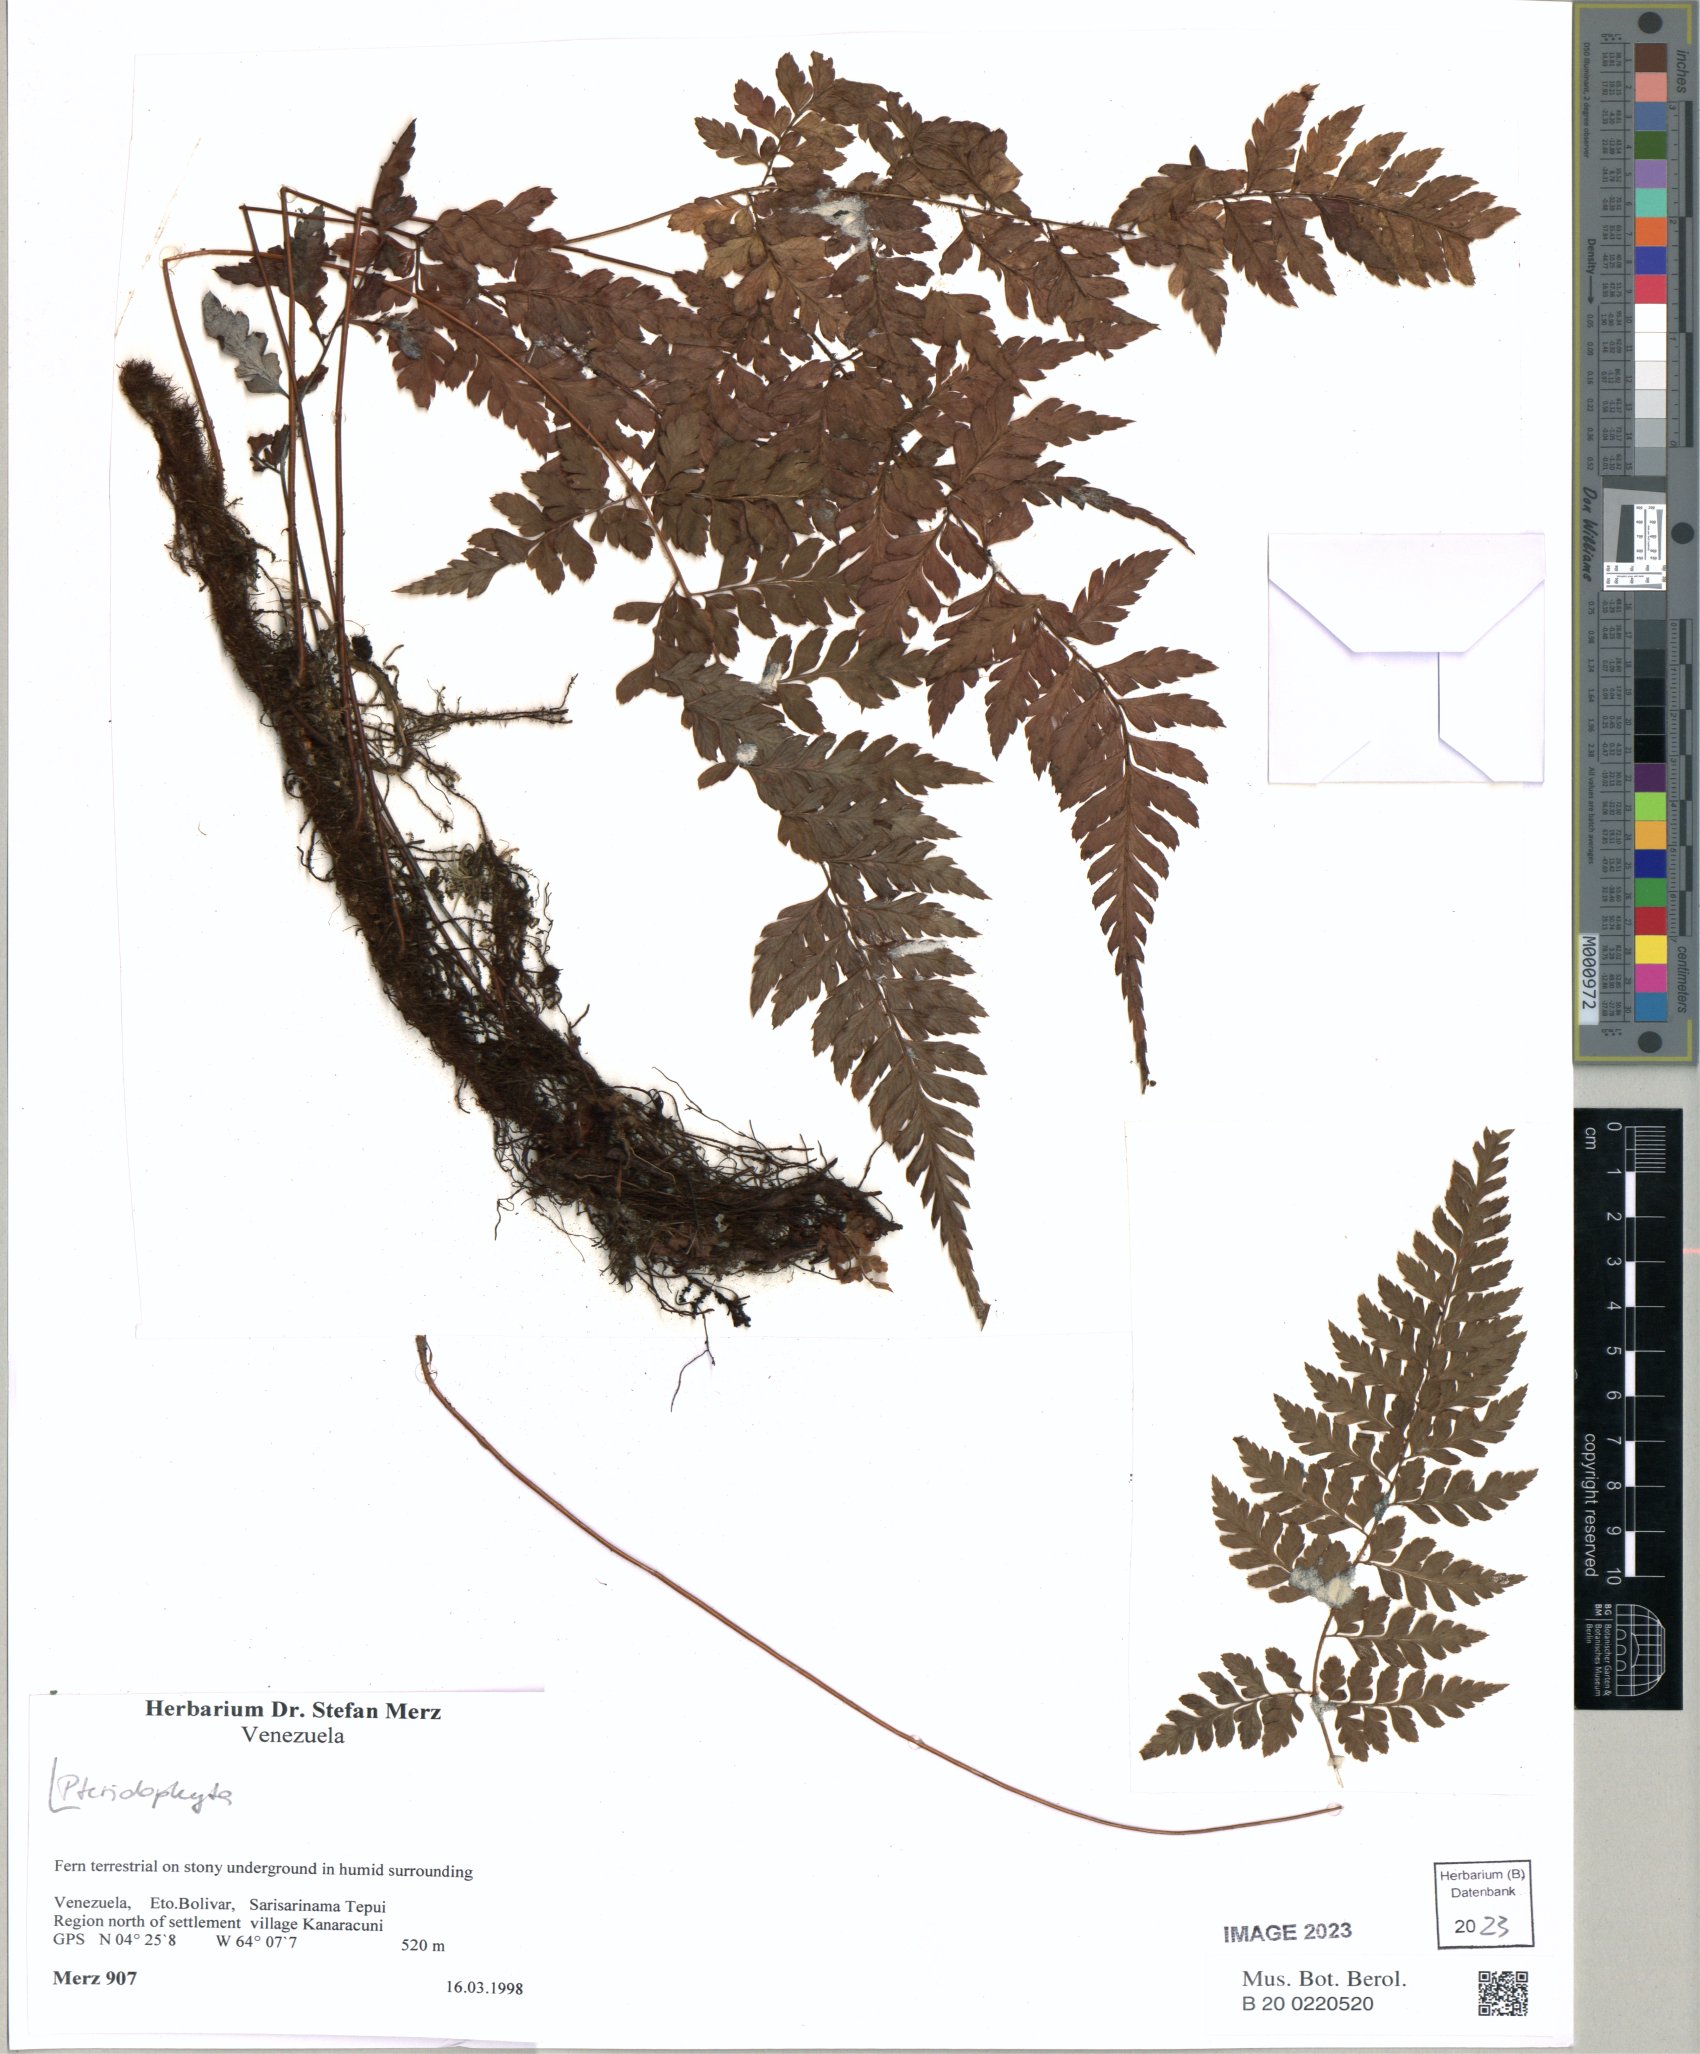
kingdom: Plantae
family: Pteridophyta
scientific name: Pteridophyta
